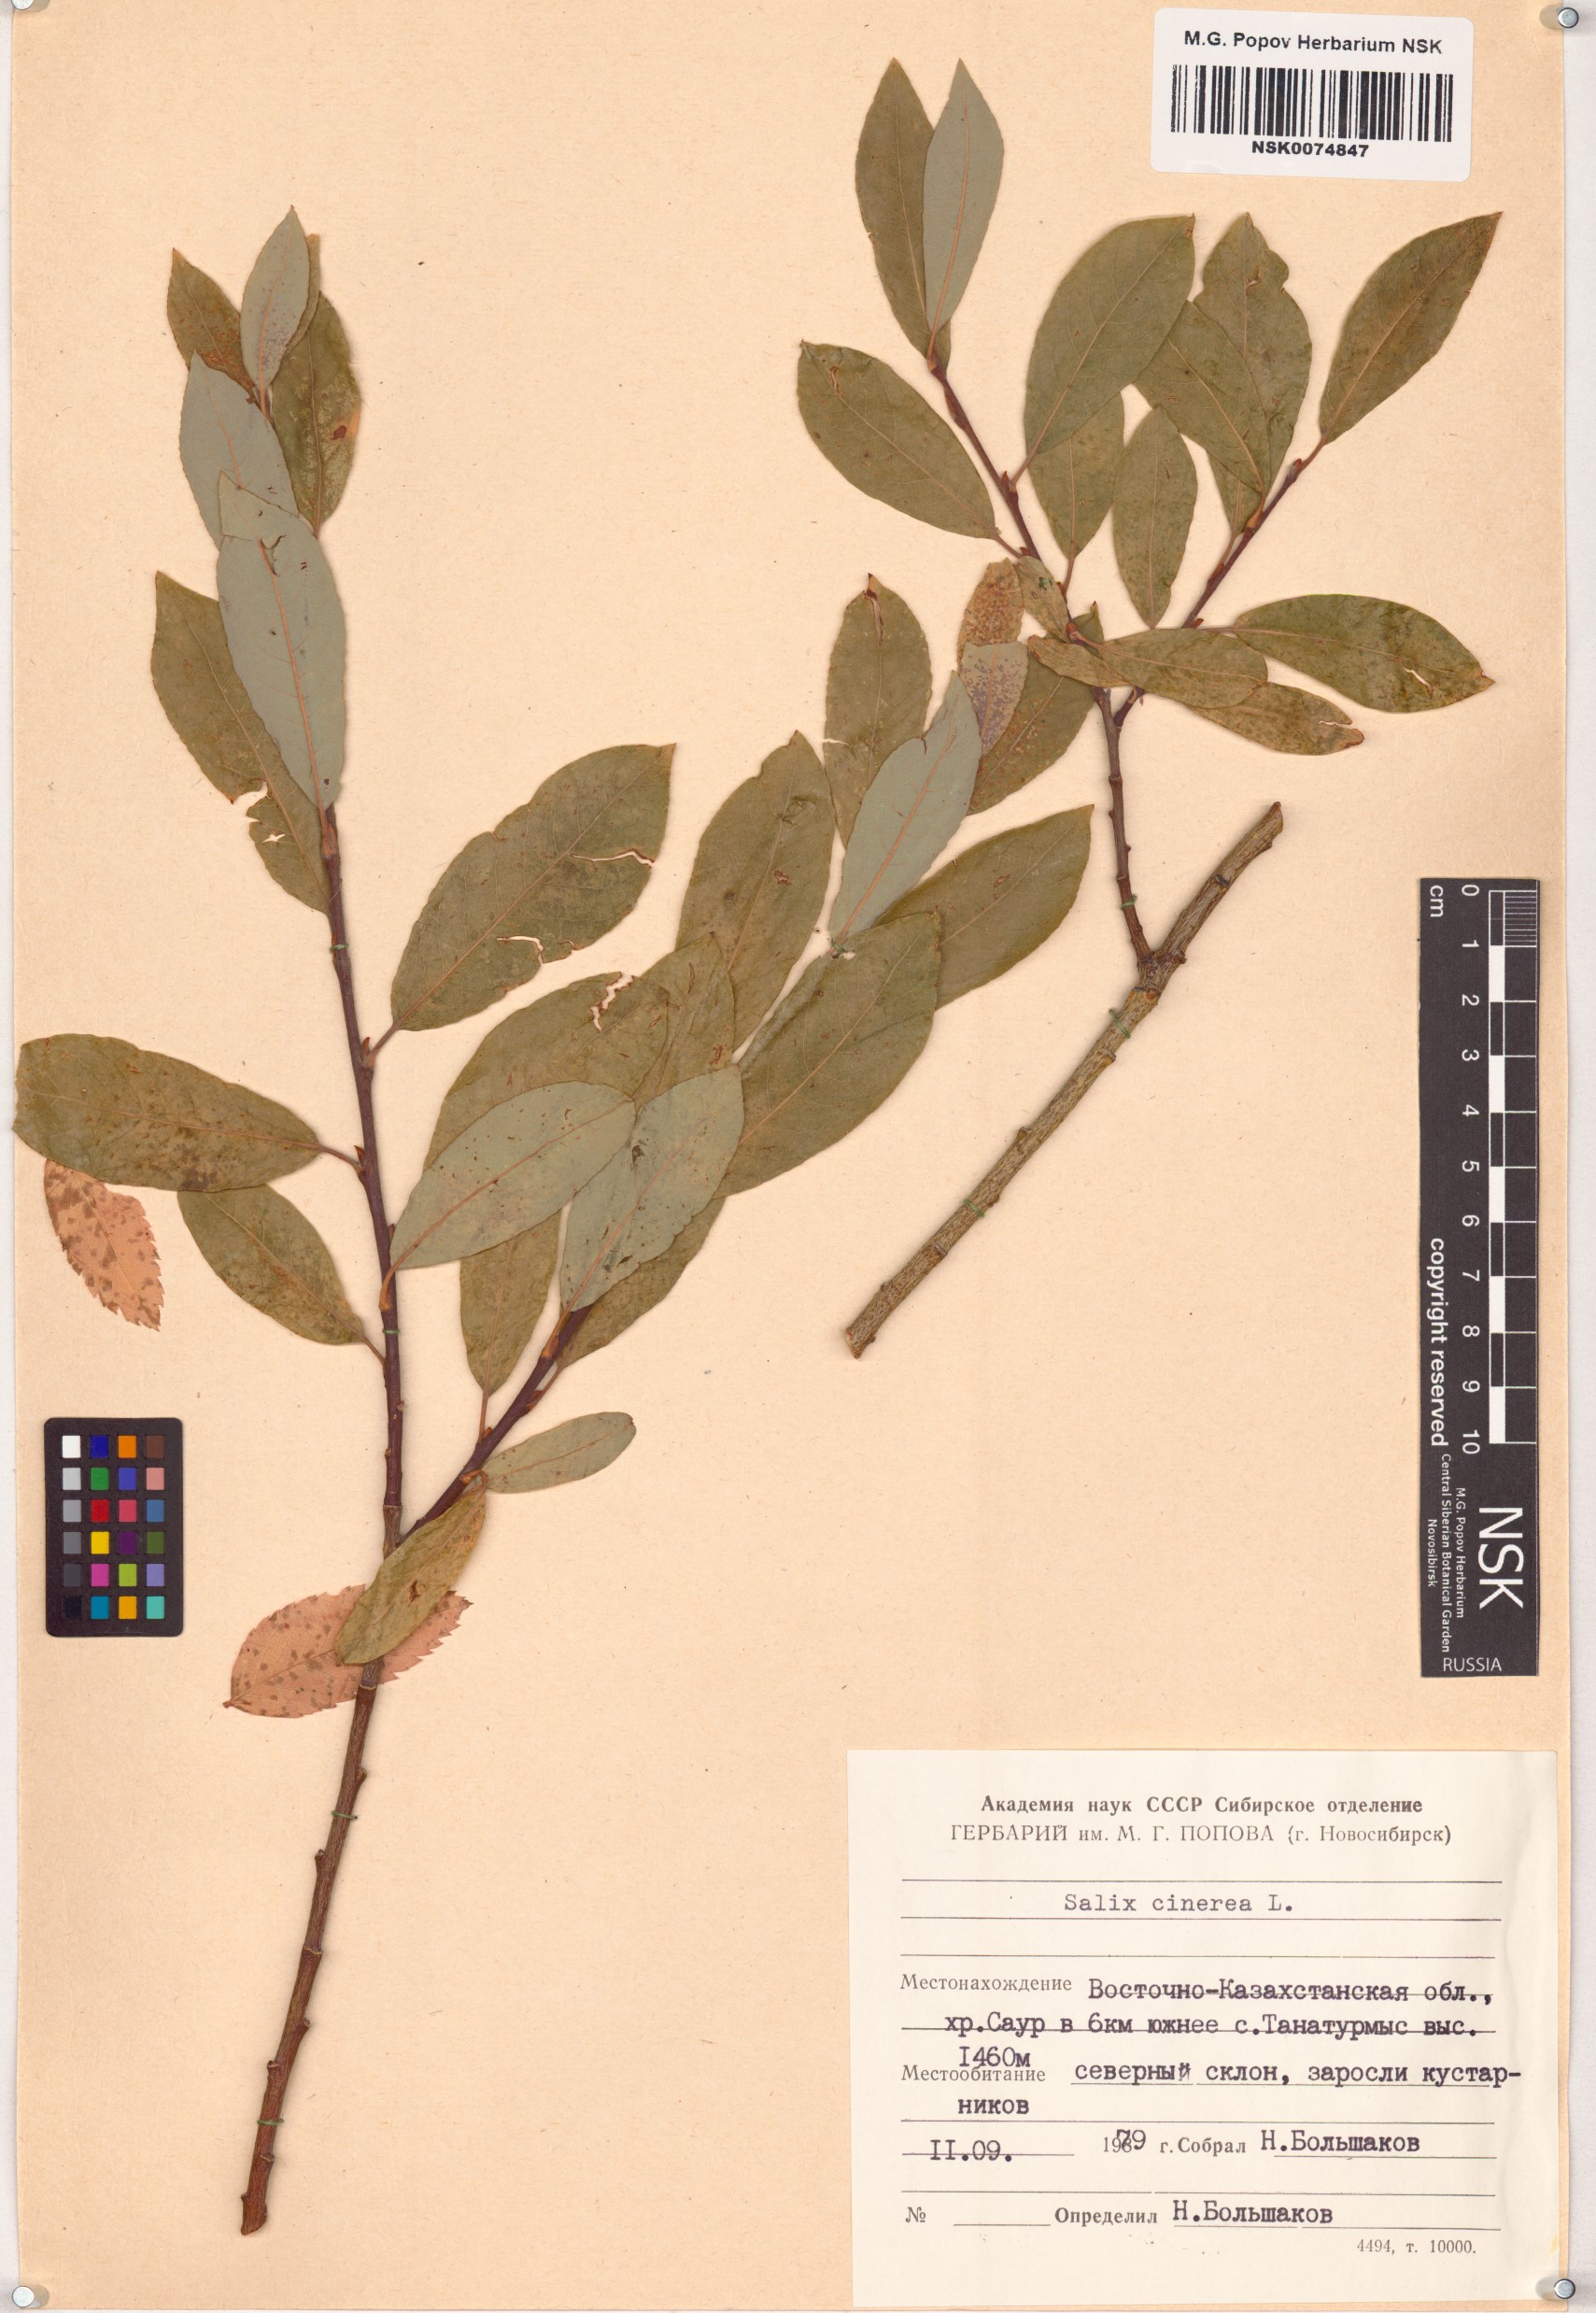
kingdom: Plantae
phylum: Tracheophyta
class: Magnoliopsida
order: Malpighiales
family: Salicaceae
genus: Salix
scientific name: Salix cinerea
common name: Common sallow
